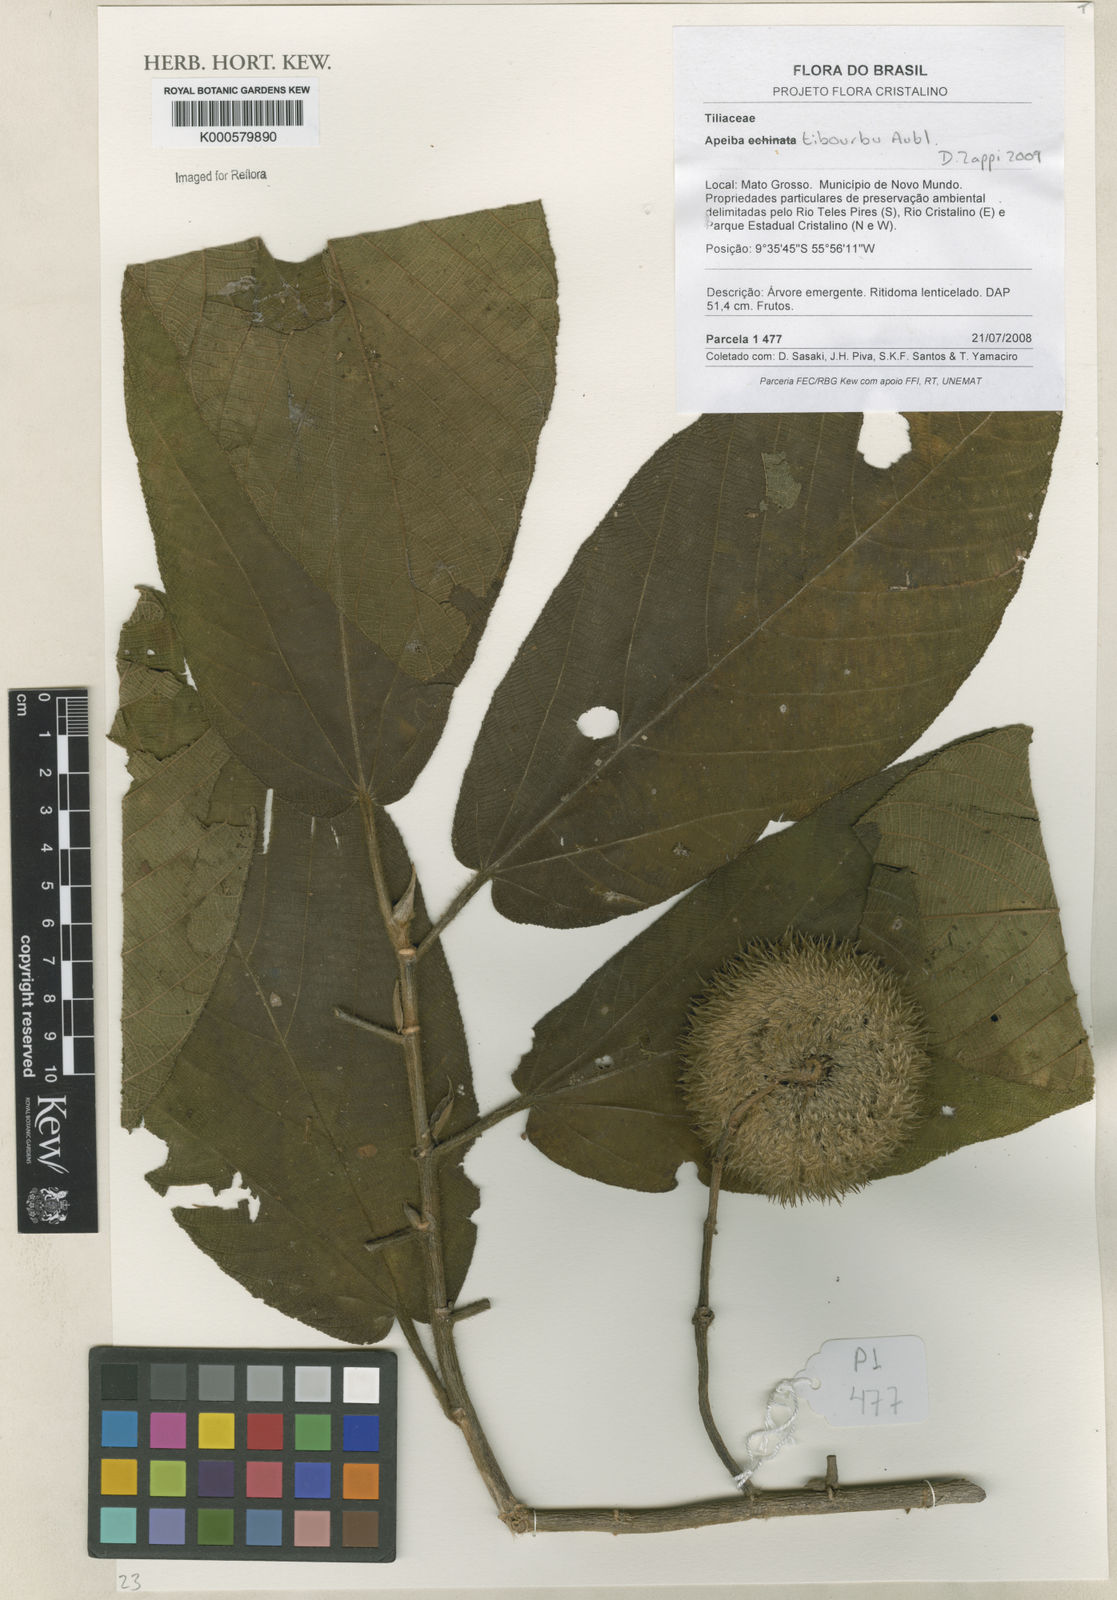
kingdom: Plantae
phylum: Tracheophyta
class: Magnoliopsida
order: Malvales
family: Malvaceae
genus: Apeiba
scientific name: Apeiba tibourbou
